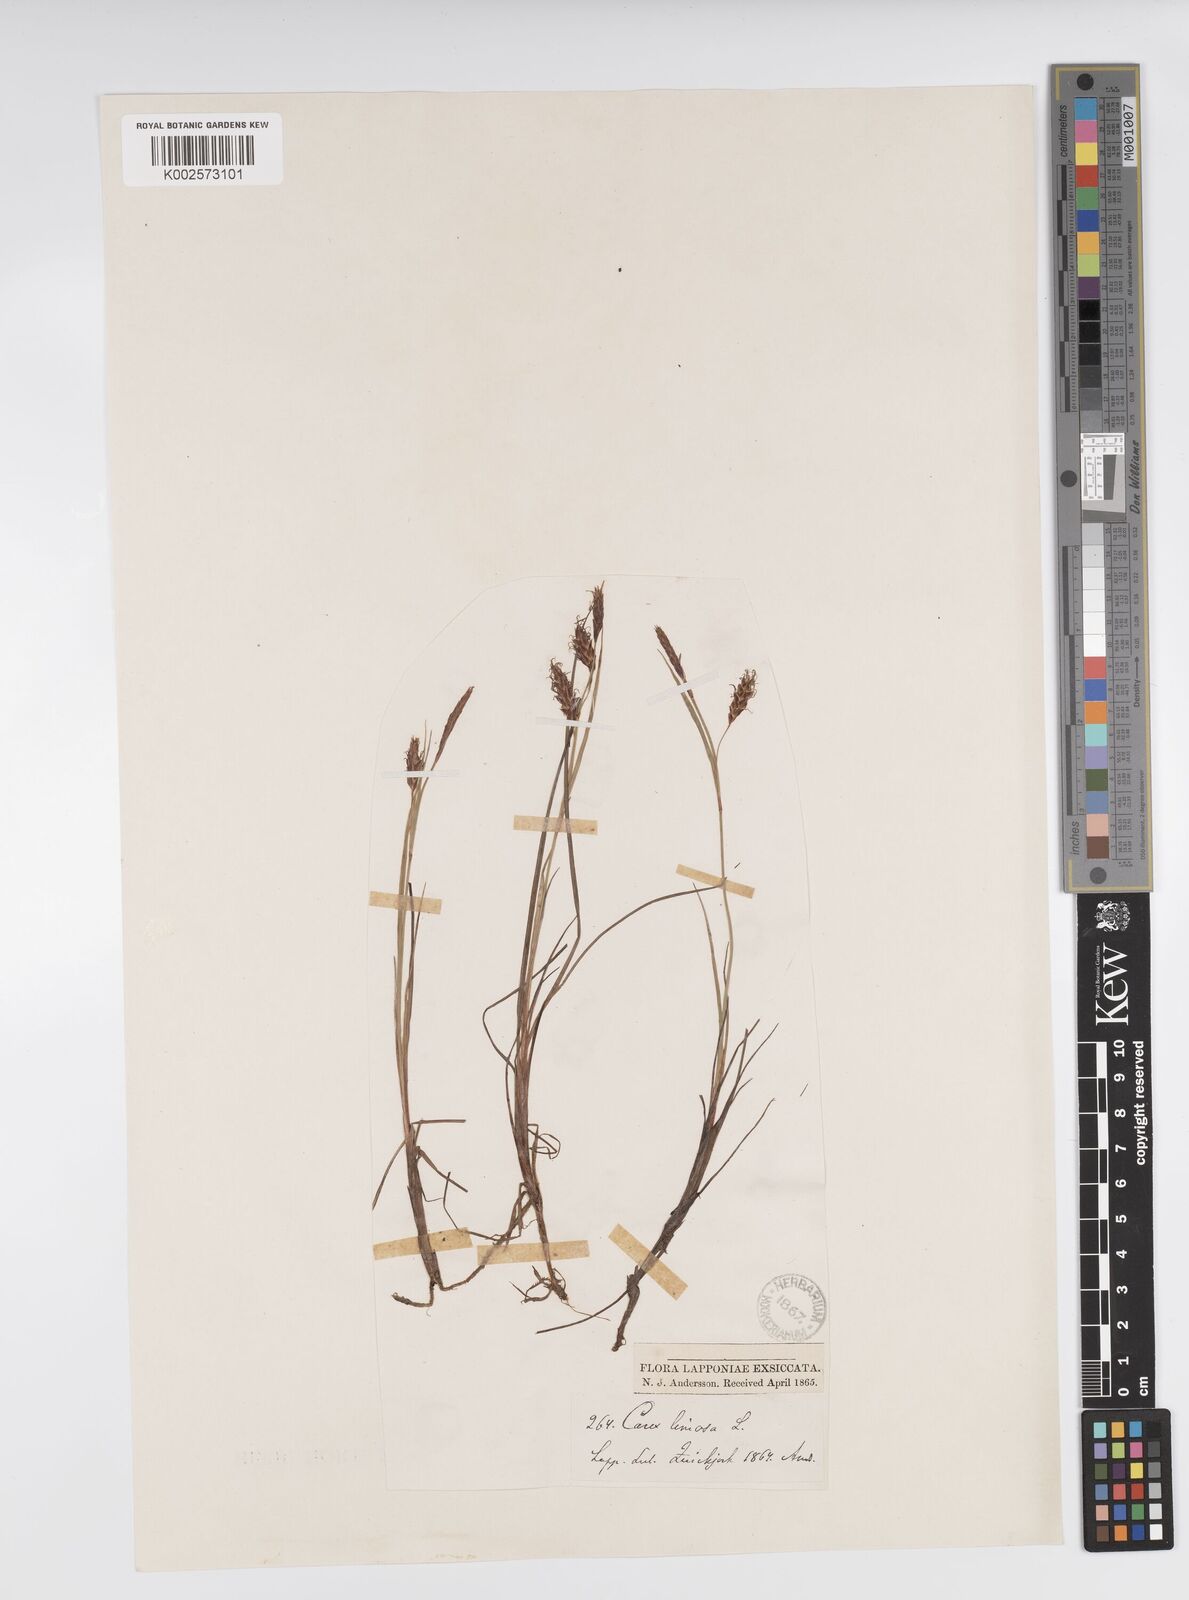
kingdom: Plantae
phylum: Tracheophyta
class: Liliopsida
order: Poales
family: Cyperaceae
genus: Carex
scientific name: Carex limosa
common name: Bog sedge
